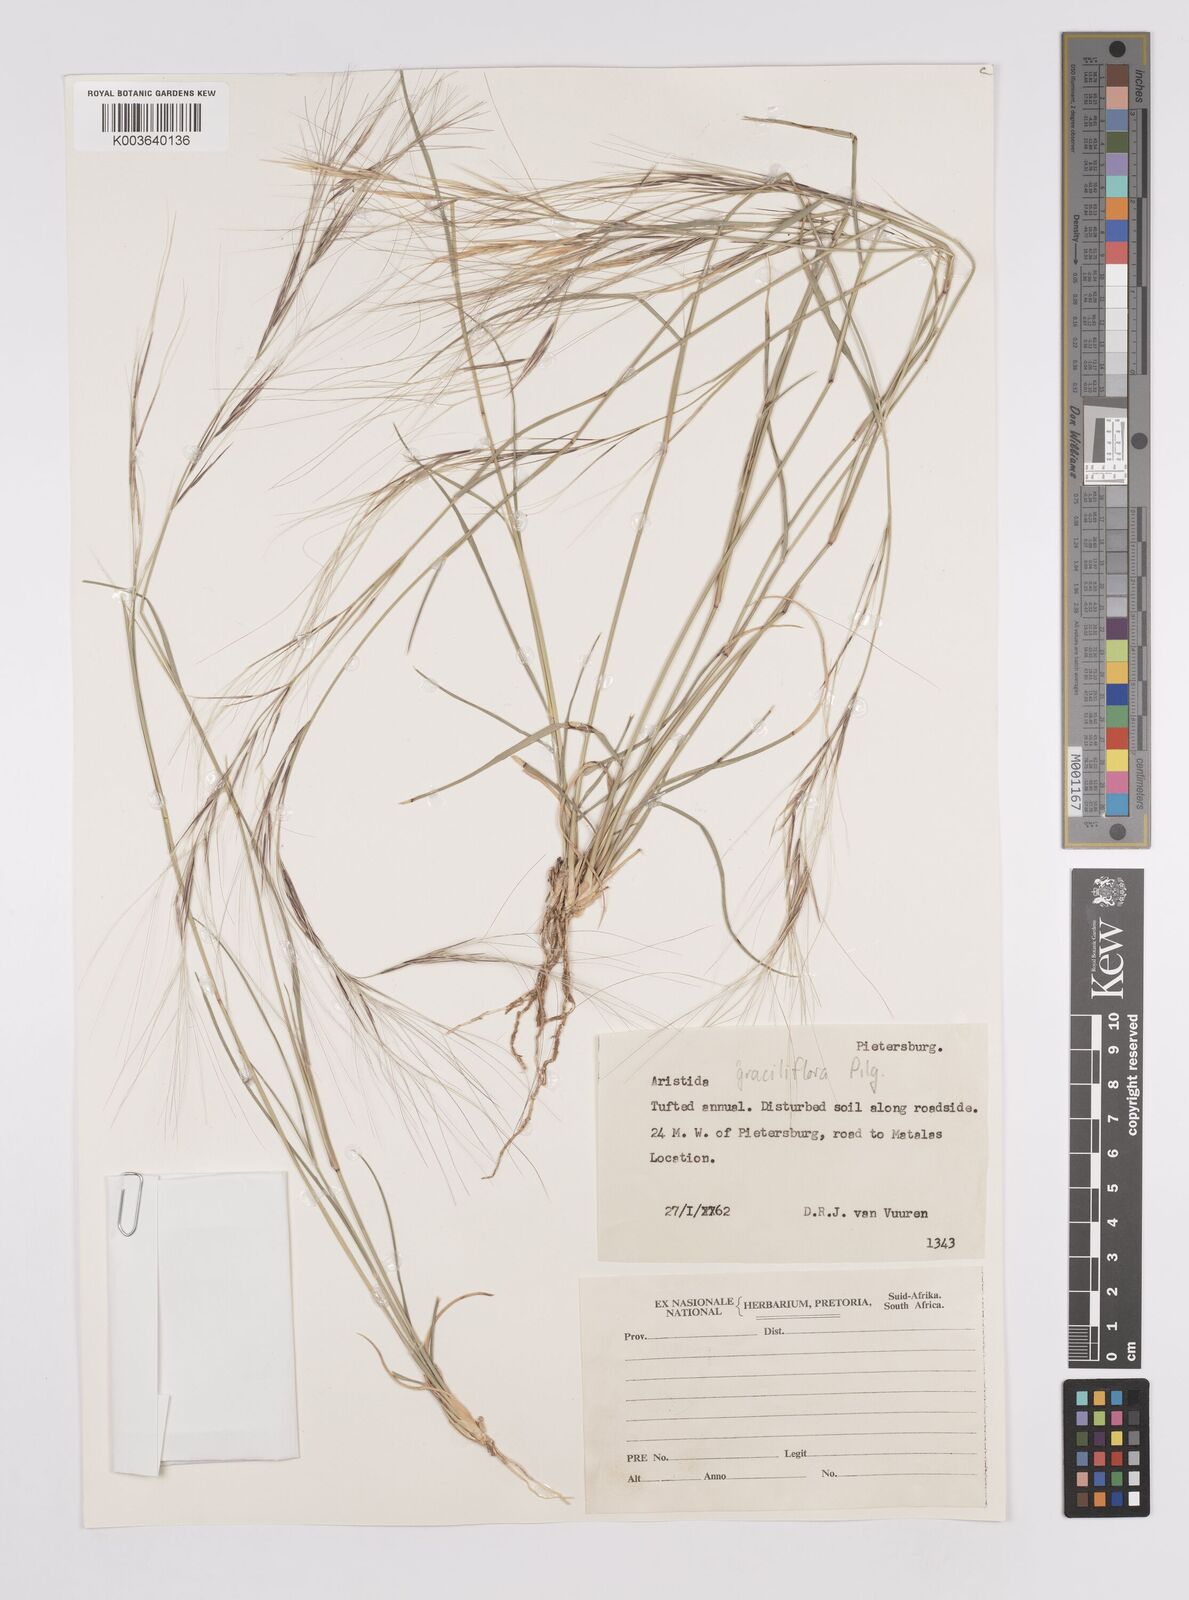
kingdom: Plantae
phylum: Tracheophyta
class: Liliopsida
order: Poales
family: Poaceae
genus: Aristida
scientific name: Aristida stipitata
